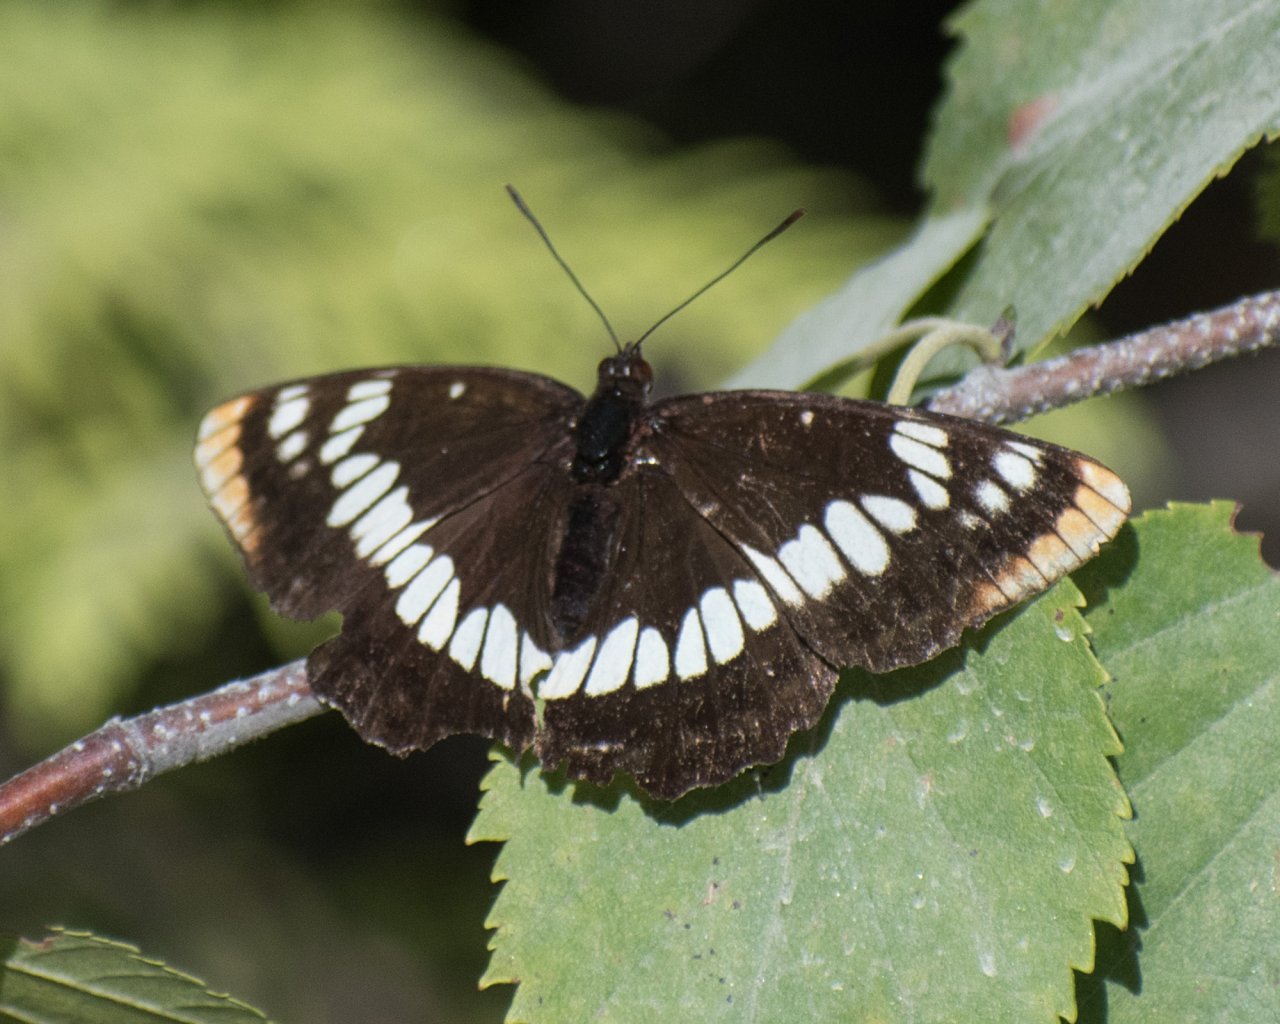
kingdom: Animalia
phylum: Arthropoda
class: Insecta
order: Lepidoptera
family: Nymphalidae
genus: Limenitis
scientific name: Limenitis lorquini
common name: Lorquin's Admiral
